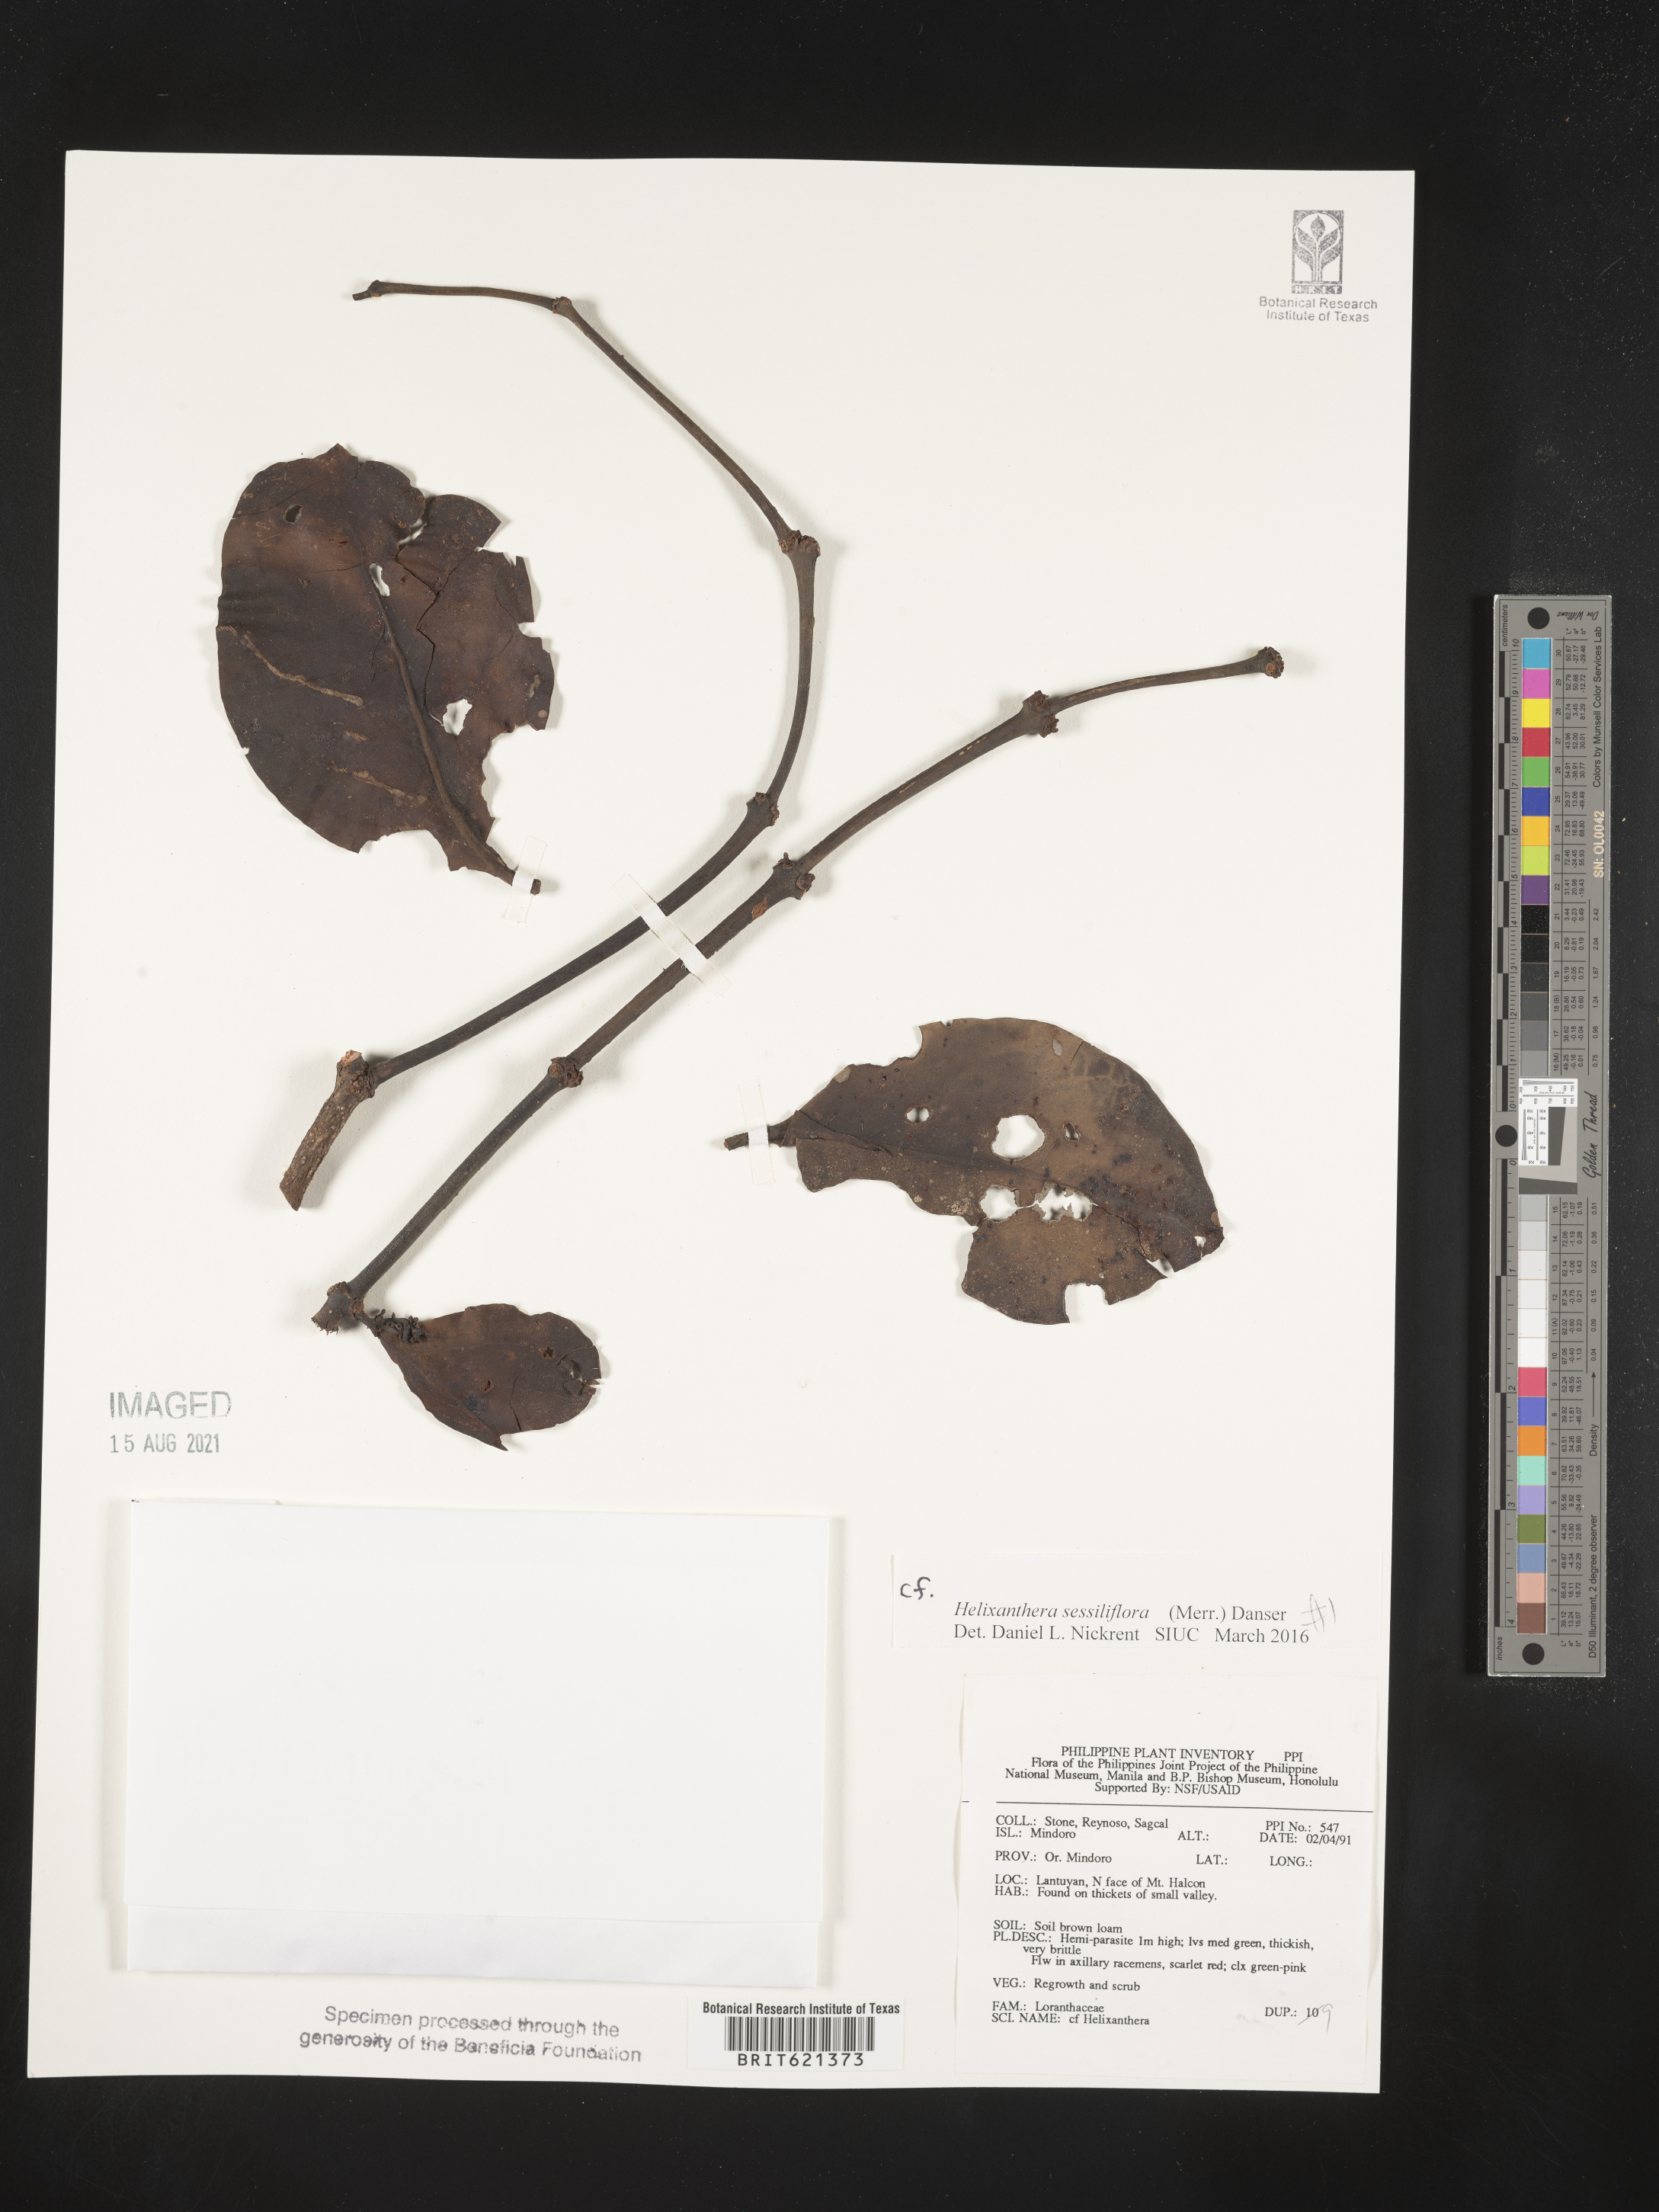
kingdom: Plantae
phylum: Tracheophyta
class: Magnoliopsida
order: Santalales
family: Loranthaceae
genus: Helixanthera
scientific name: Helixanthera sessiliflora
